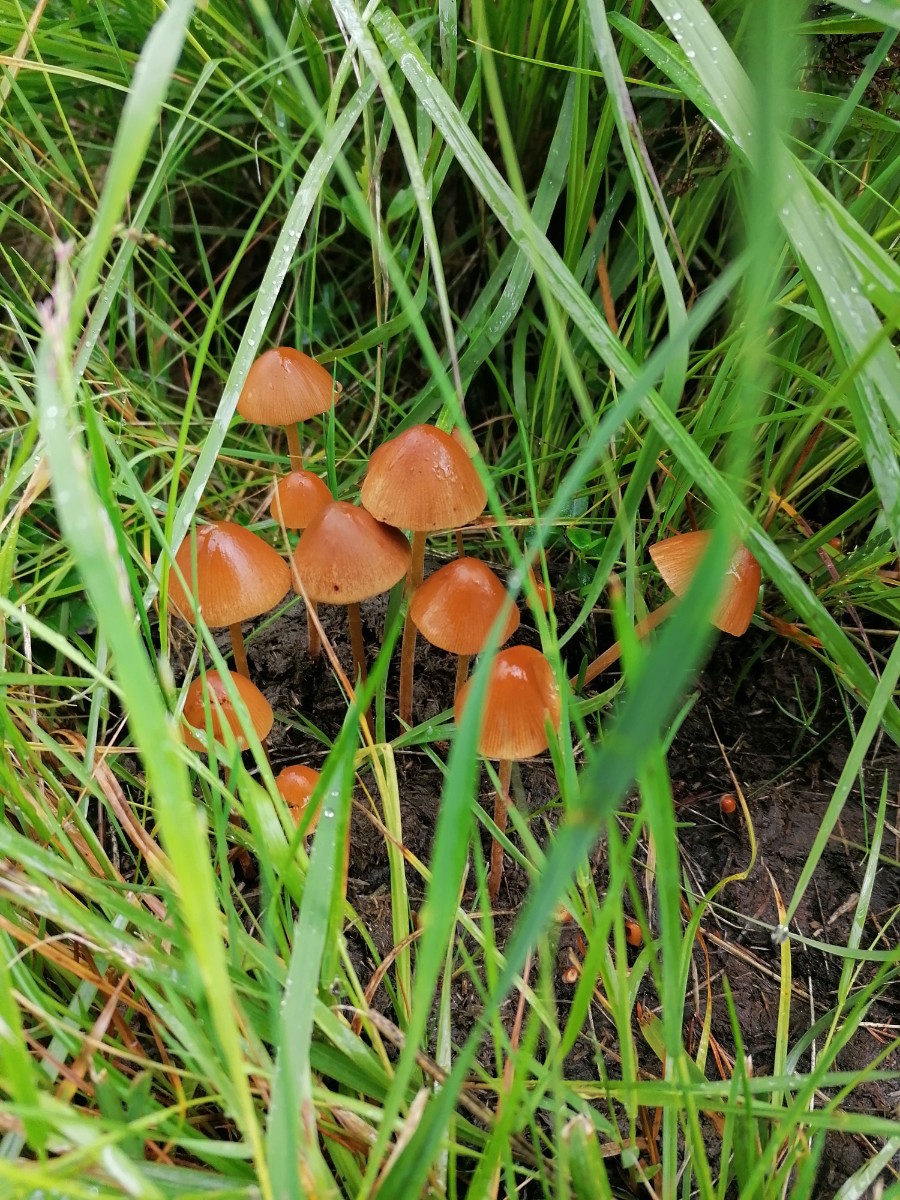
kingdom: Fungi
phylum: Basidiomycota
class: Agaricomycetes
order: Agaricales
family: Bolbitiaceae
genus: Conocybe
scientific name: Conocybe
